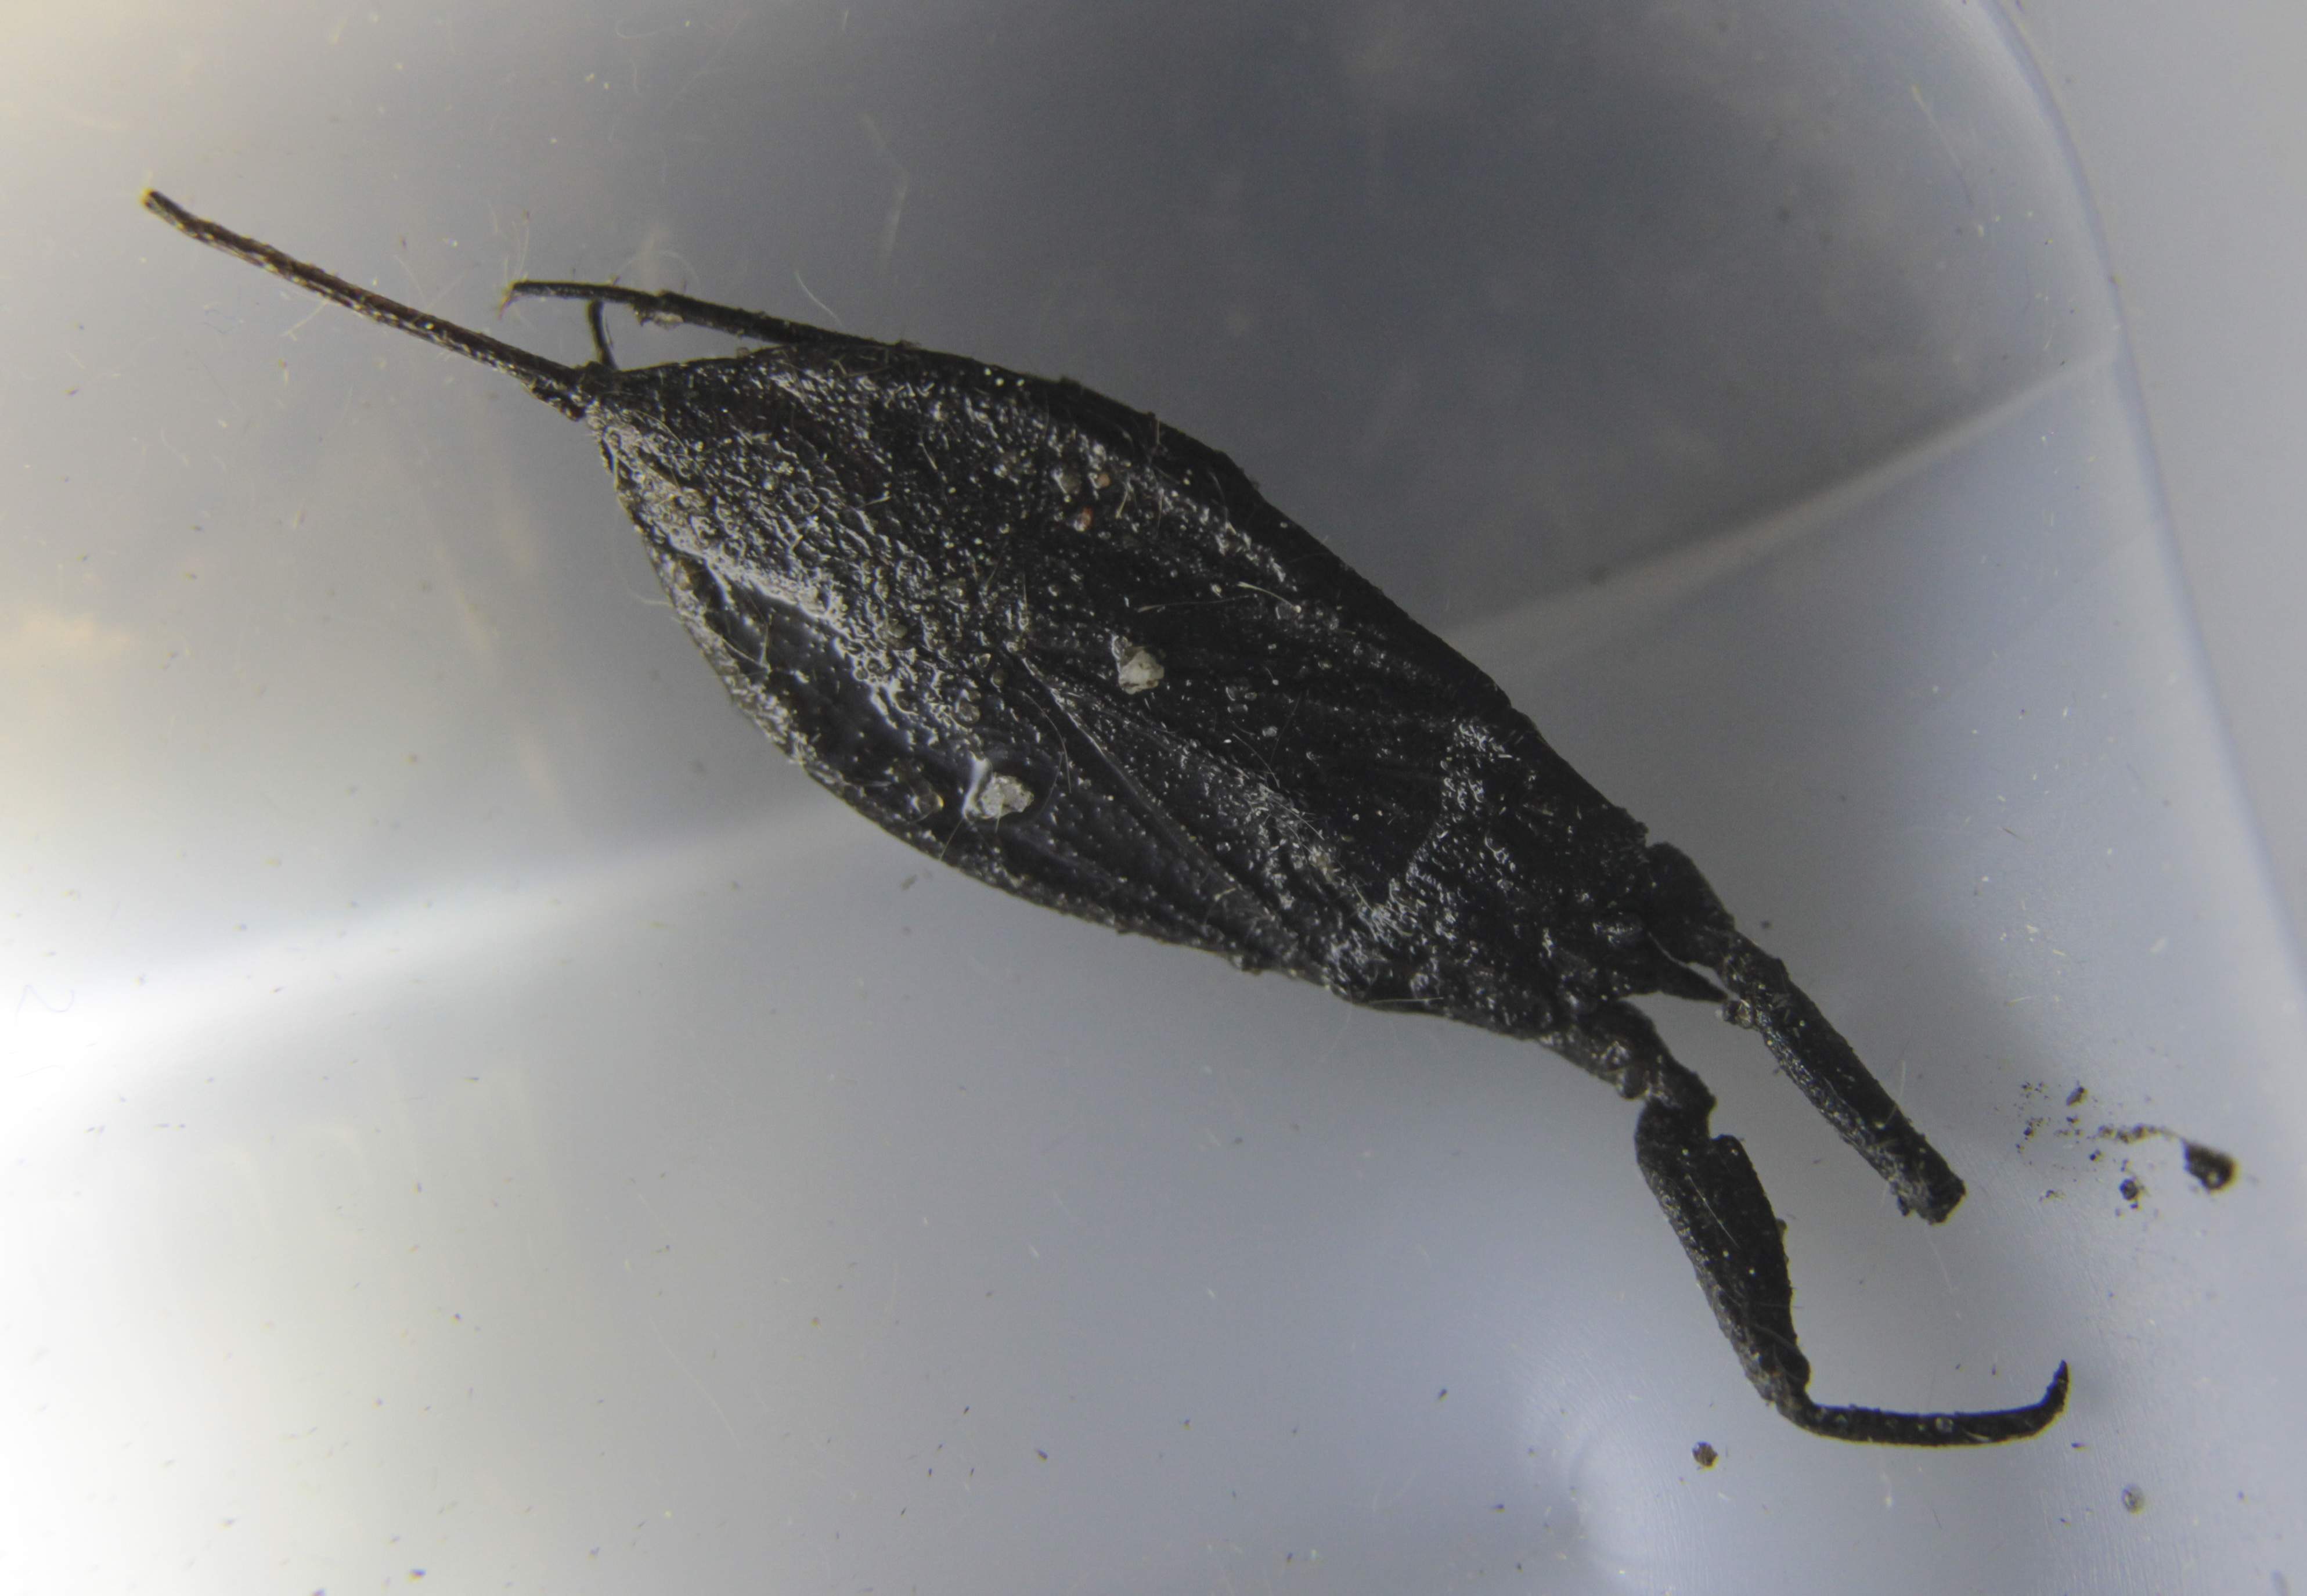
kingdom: Animalia
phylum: Arthropoda
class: Insecta
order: Hemiptera
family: Nepidae
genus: Nepa
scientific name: Nepa cinerea
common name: Water scorpion
